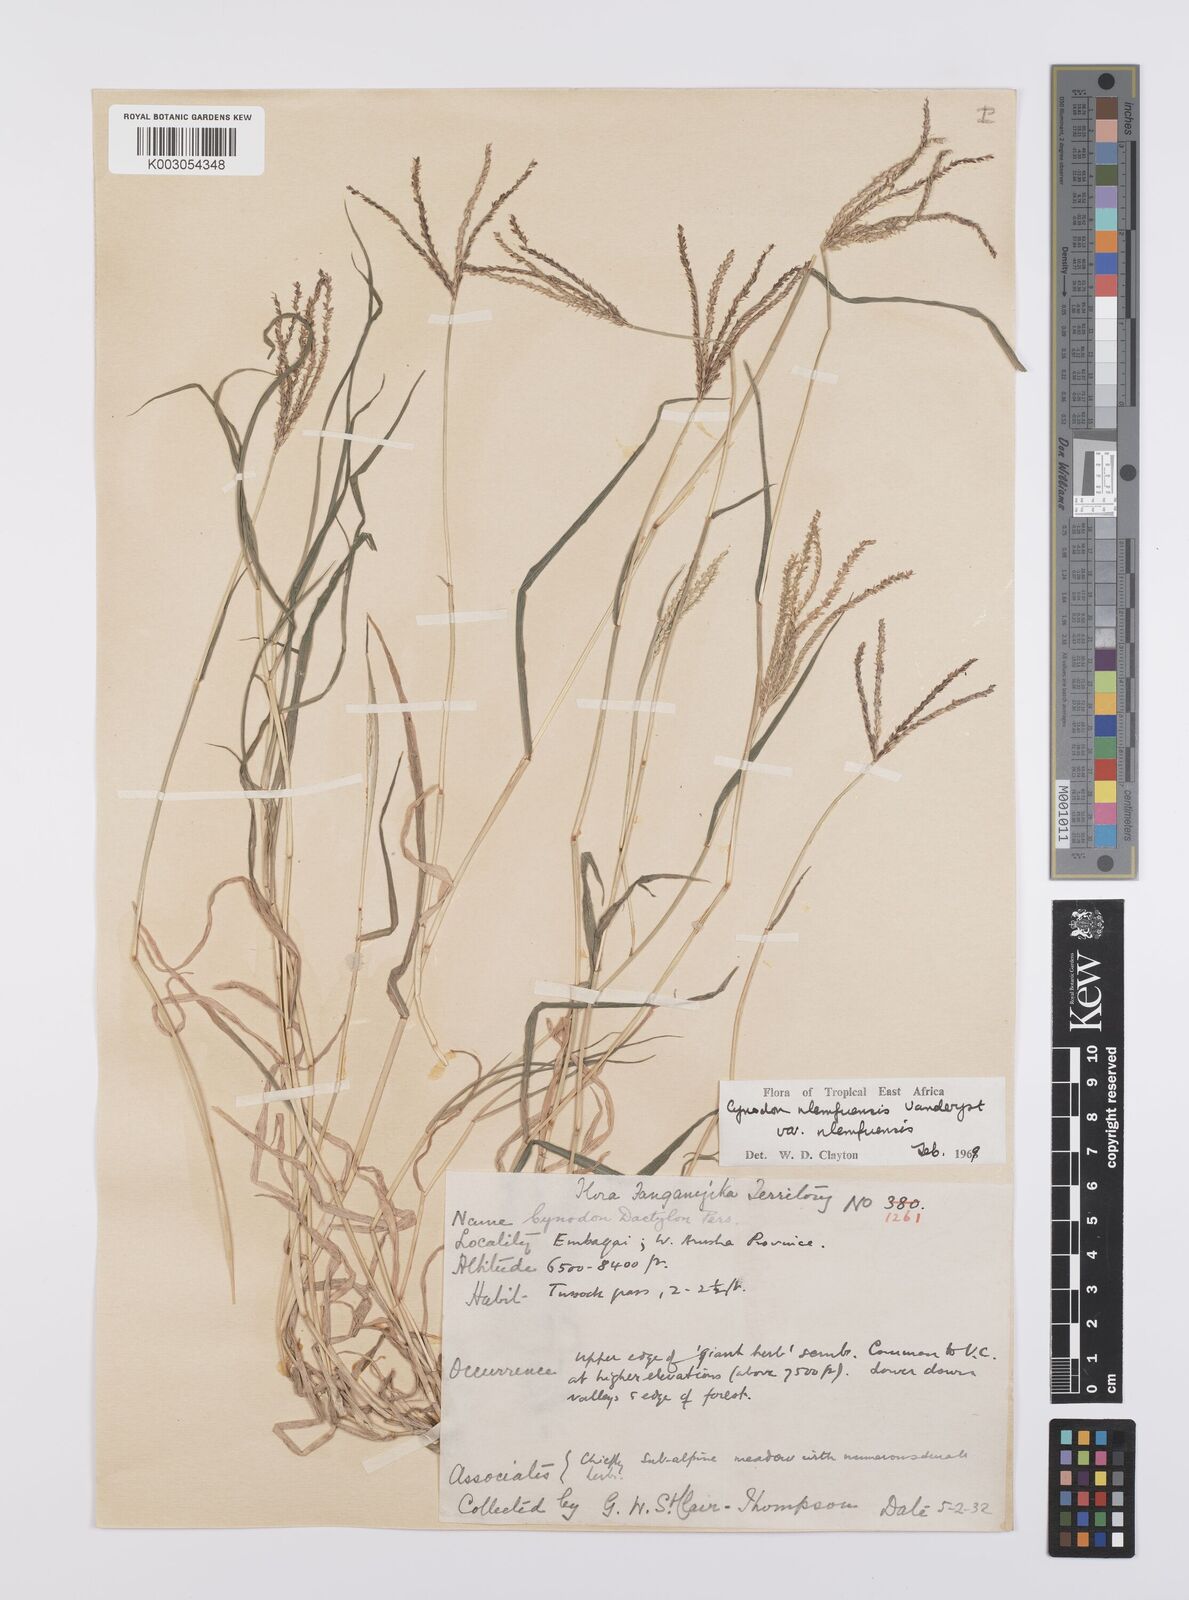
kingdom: Plantae
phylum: Tracheophyta
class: Liliopsida
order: Poales
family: Poaceae
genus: Cynodon
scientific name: Cynodon nlemfuensis
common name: African bermudagrass
